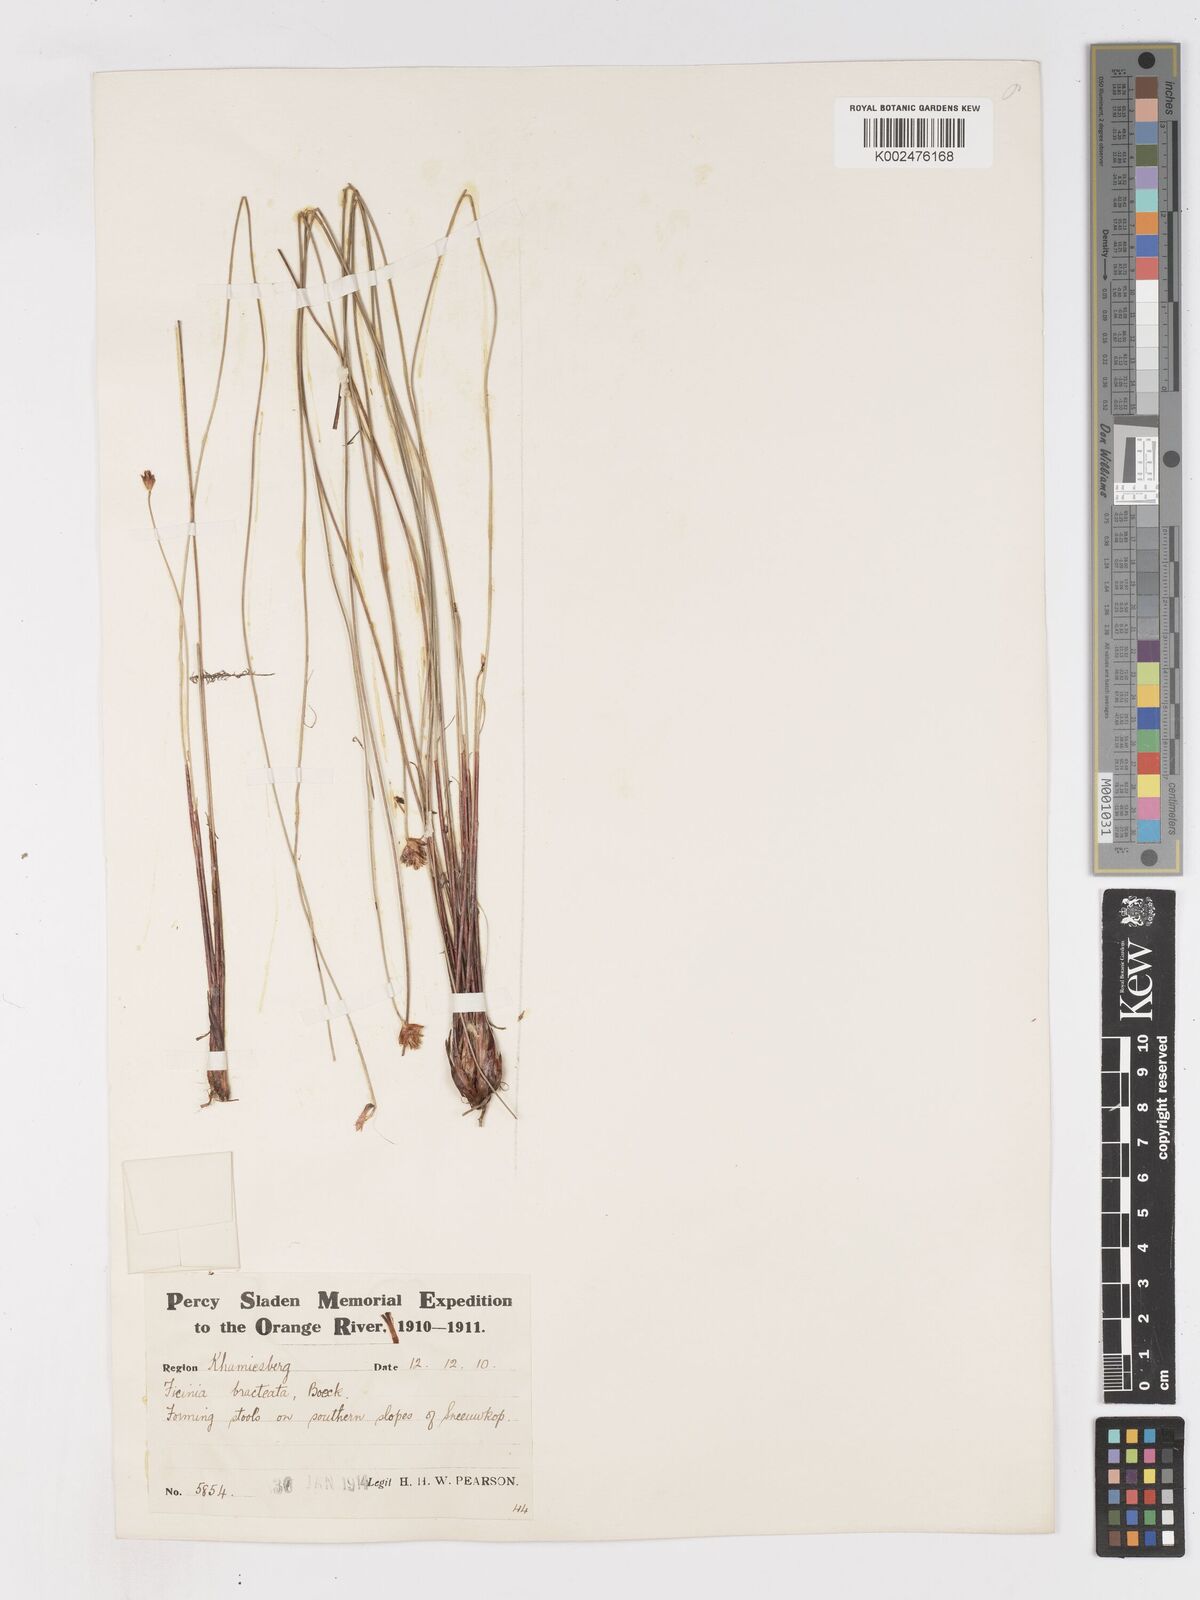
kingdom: Plantae
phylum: Tracheophyta
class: Liliopsida
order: Poales
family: Cyperaceae
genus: Ficinia
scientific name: Ficinia nigrescens
